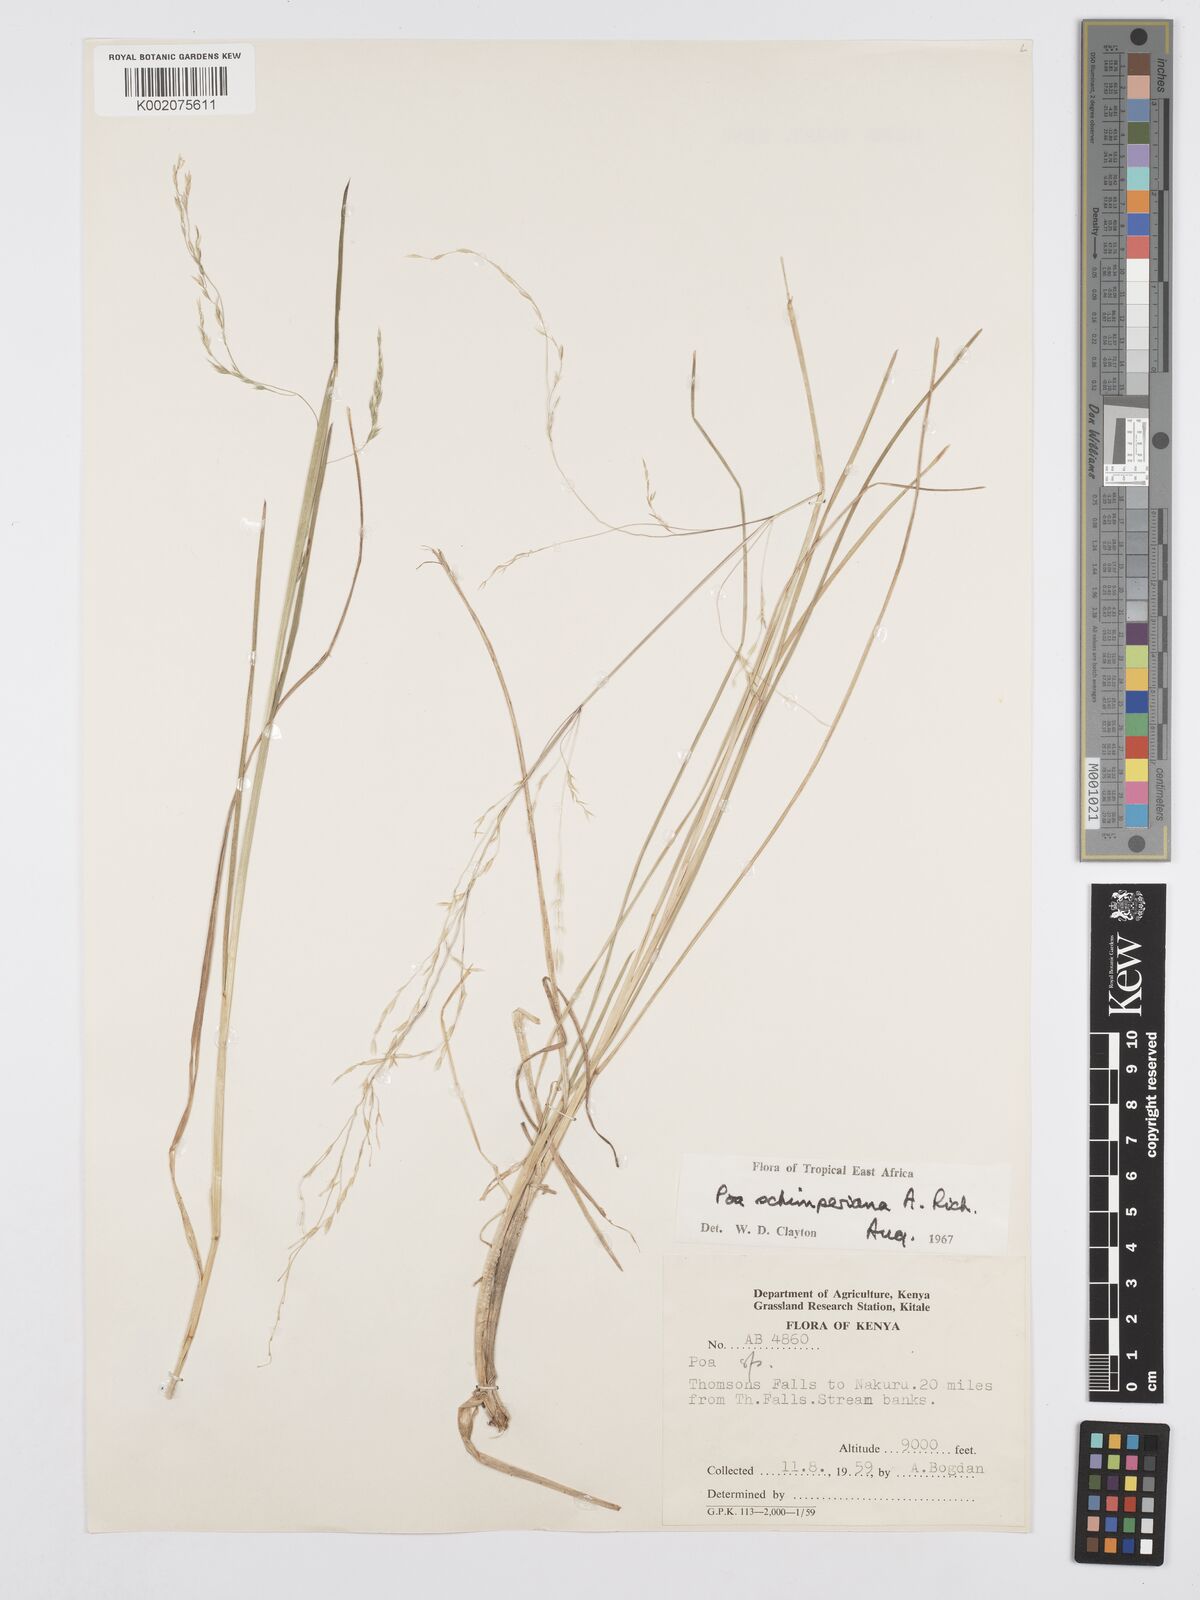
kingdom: Plantae
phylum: Tracheophyta
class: Liliopsida
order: Poales
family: Poaceae
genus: Poa
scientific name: Poa schimperiana
